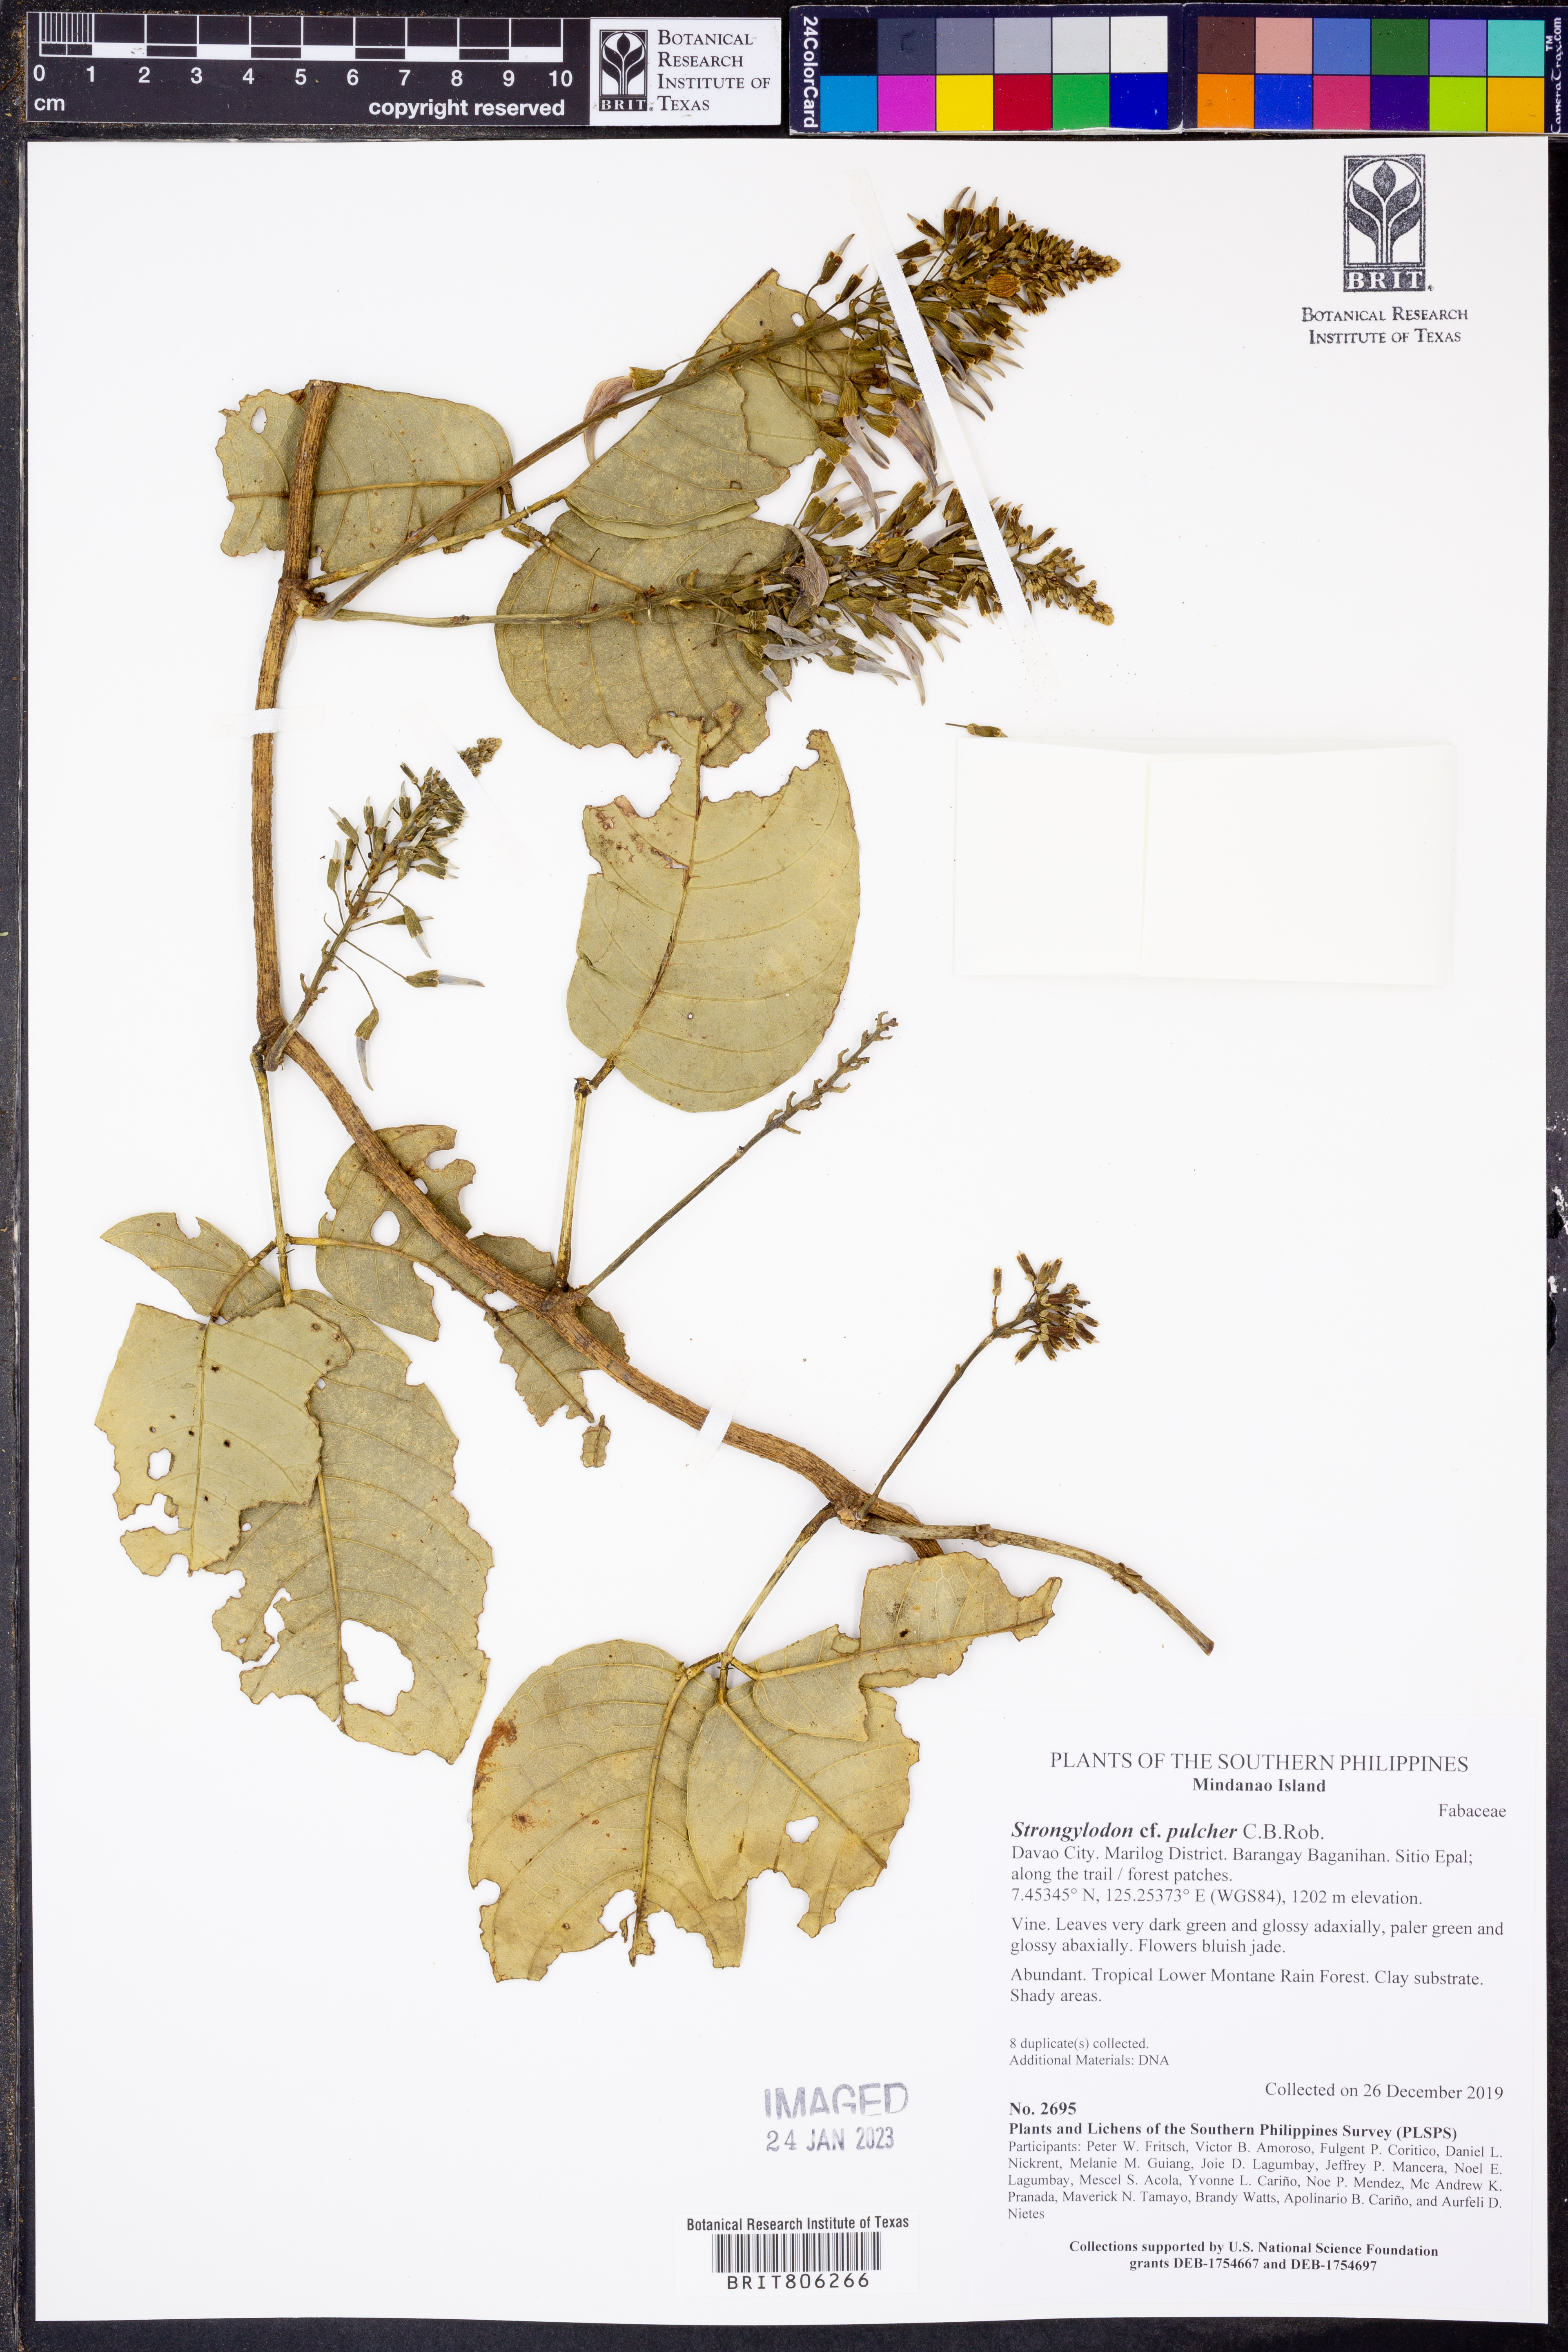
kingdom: Plantae
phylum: Tracheophyta
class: Magnoliopsida
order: Fabales
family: Fabaceae
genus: Strongylodon
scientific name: Strongylodon pulcher
